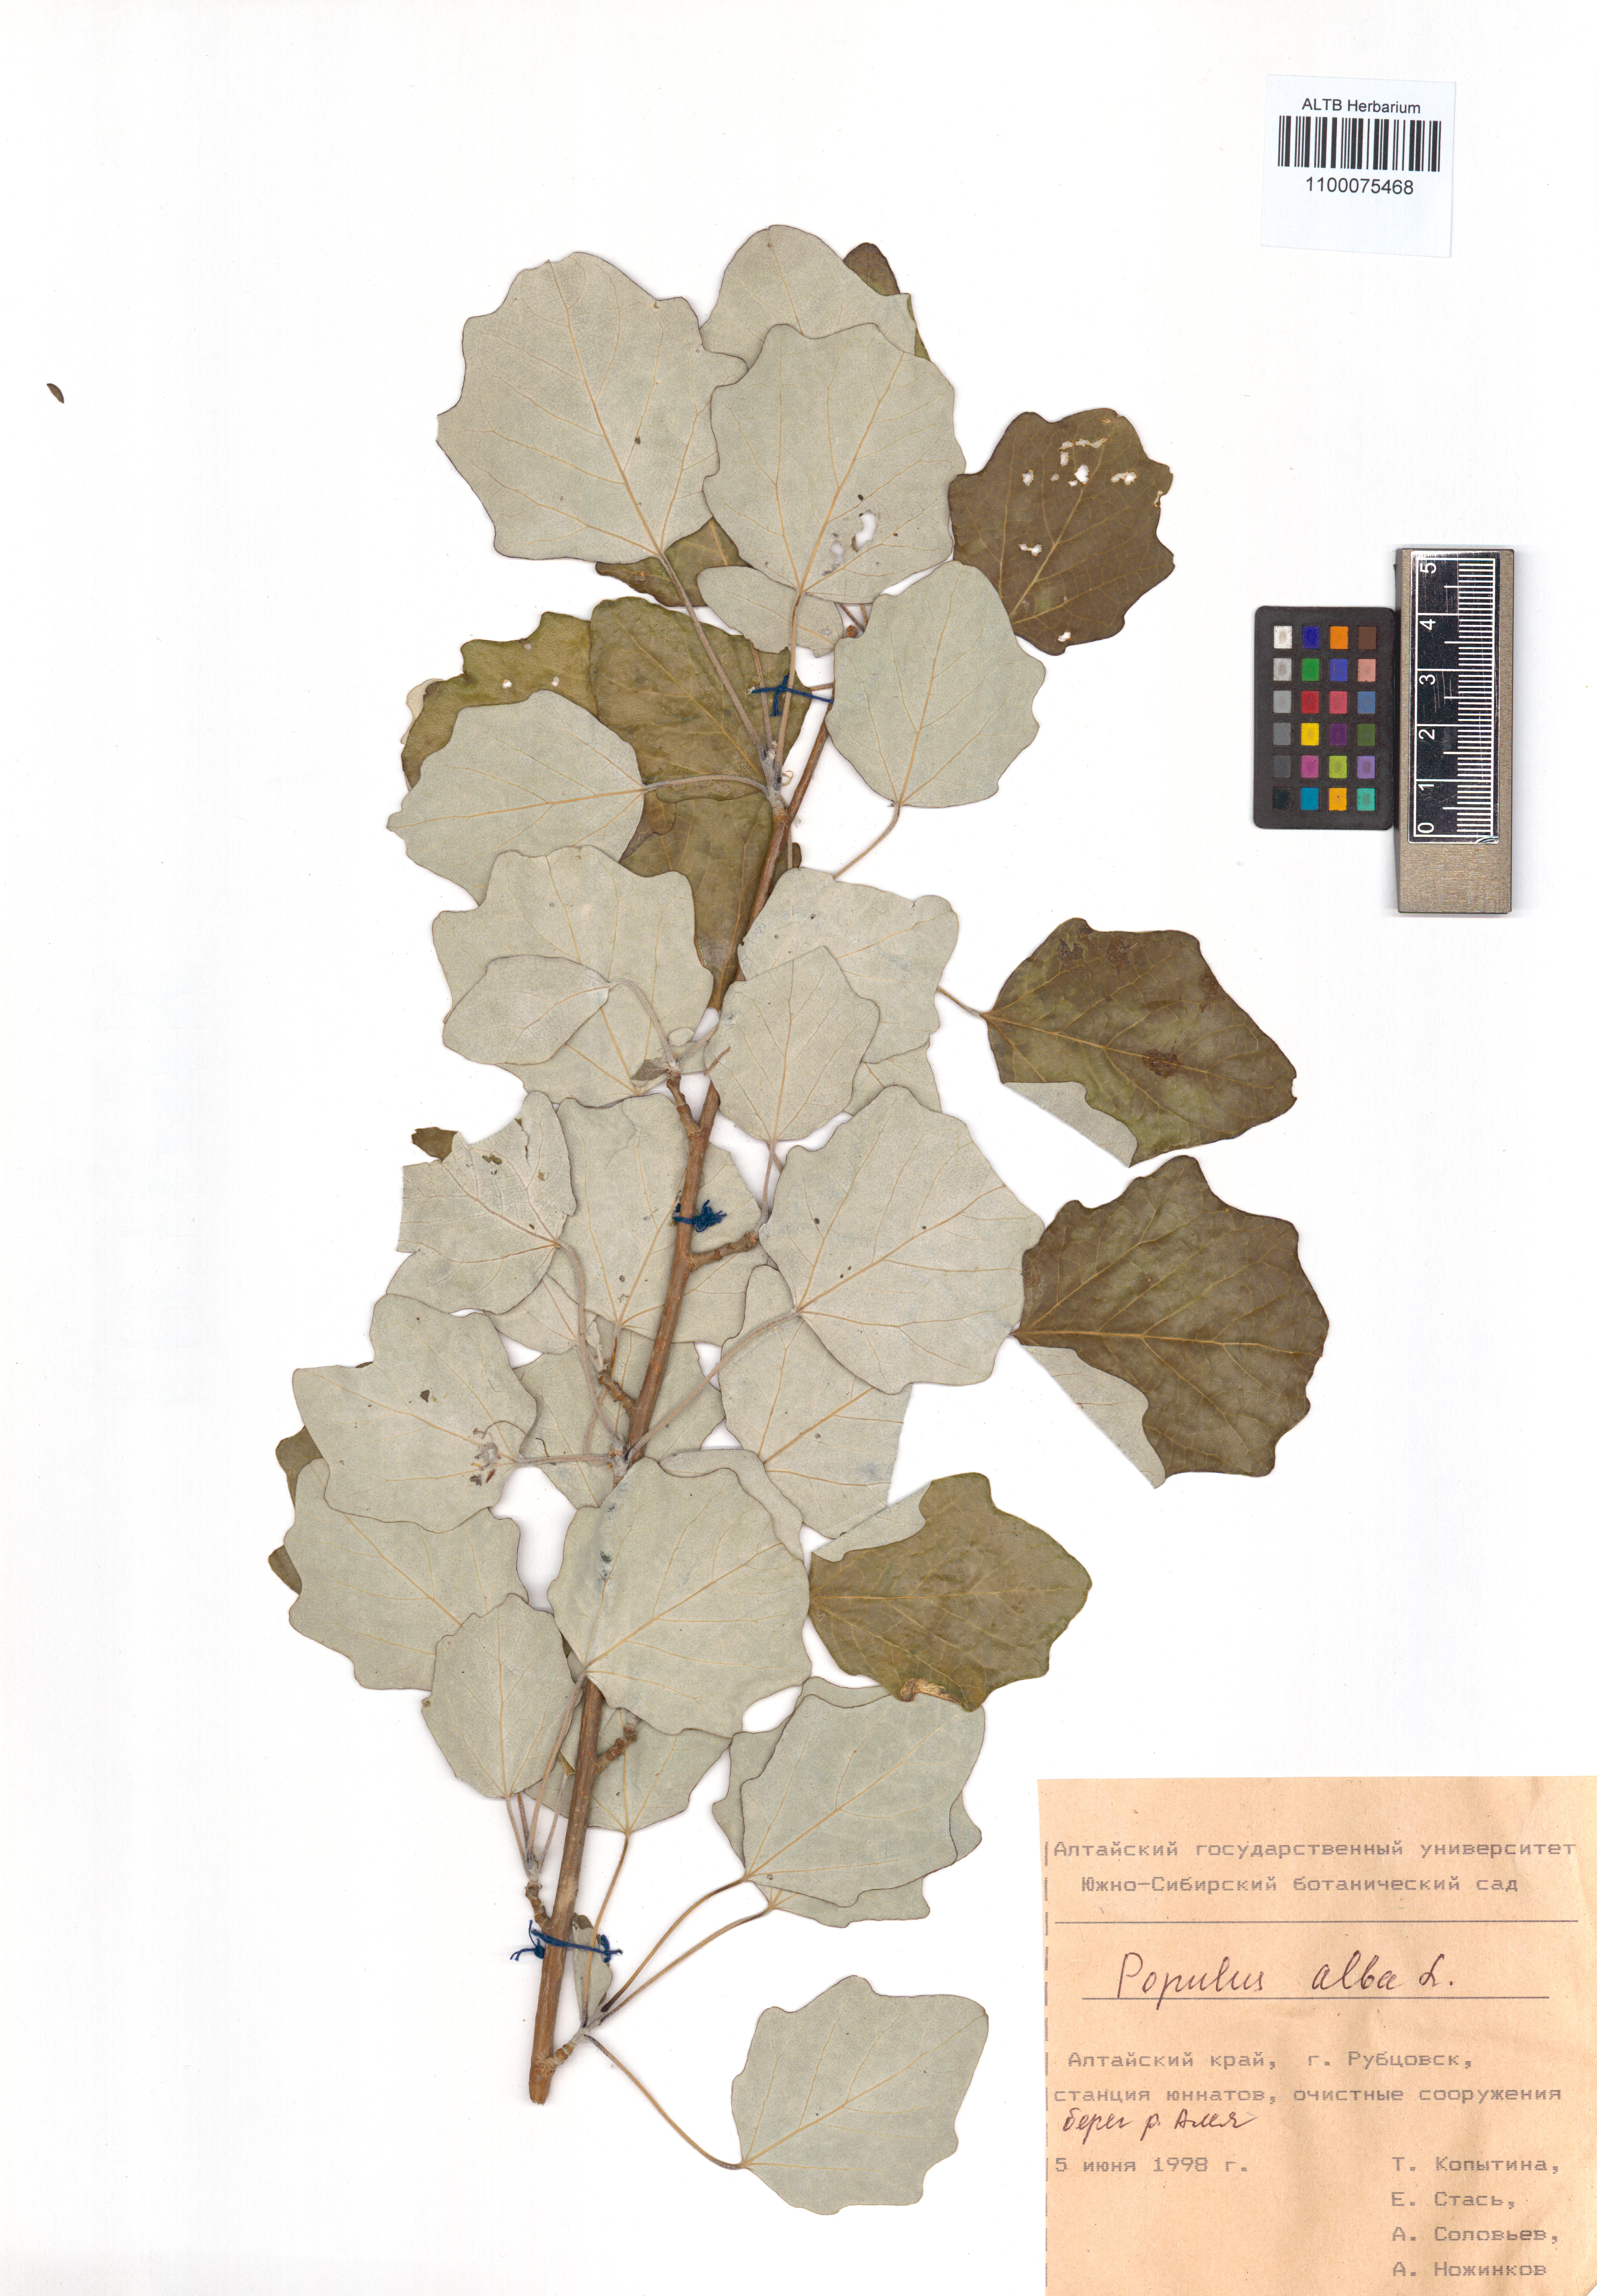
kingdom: Plantae
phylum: Tracheophyta
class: Magnoliopsida
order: Malpighiales
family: Salicaceae
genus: Populus
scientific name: Populus alba
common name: White poplar
